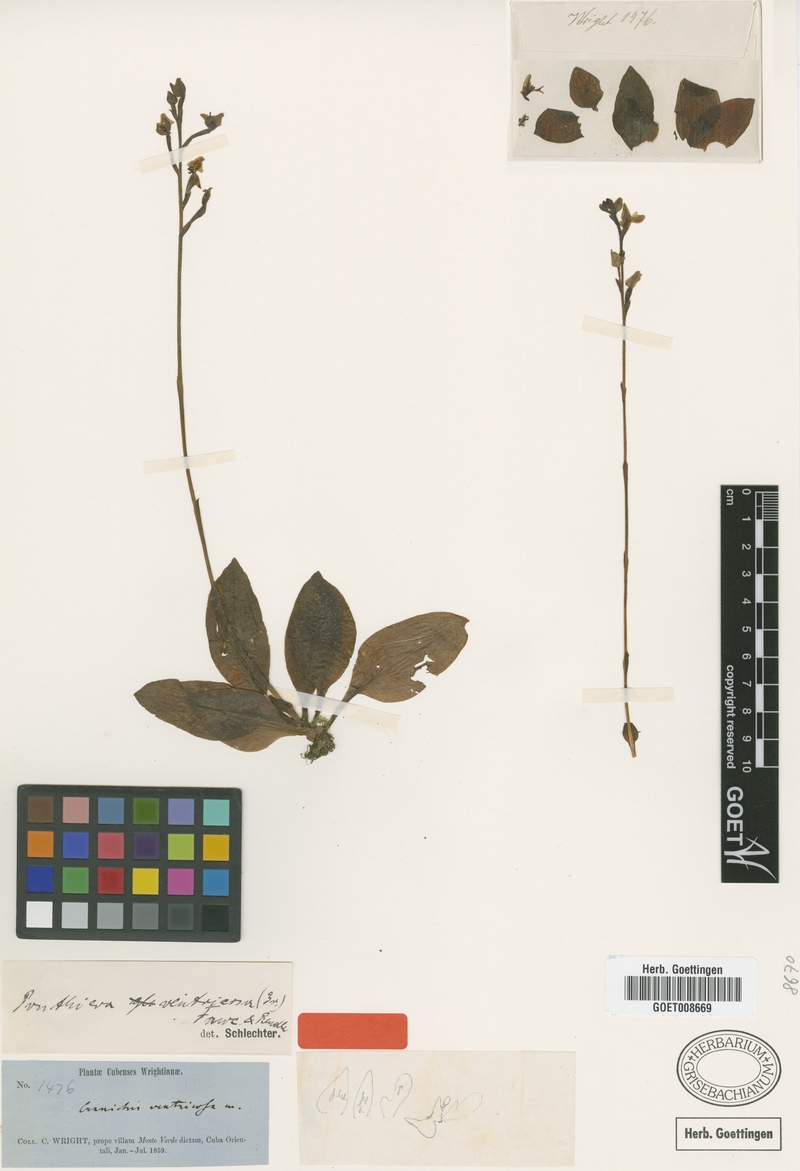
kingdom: Plantae
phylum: Tracheophyta
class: Liliopsida
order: Asparagales
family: Orchidaceae
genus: Ponthieva
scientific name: Ponthieva ventricosa
